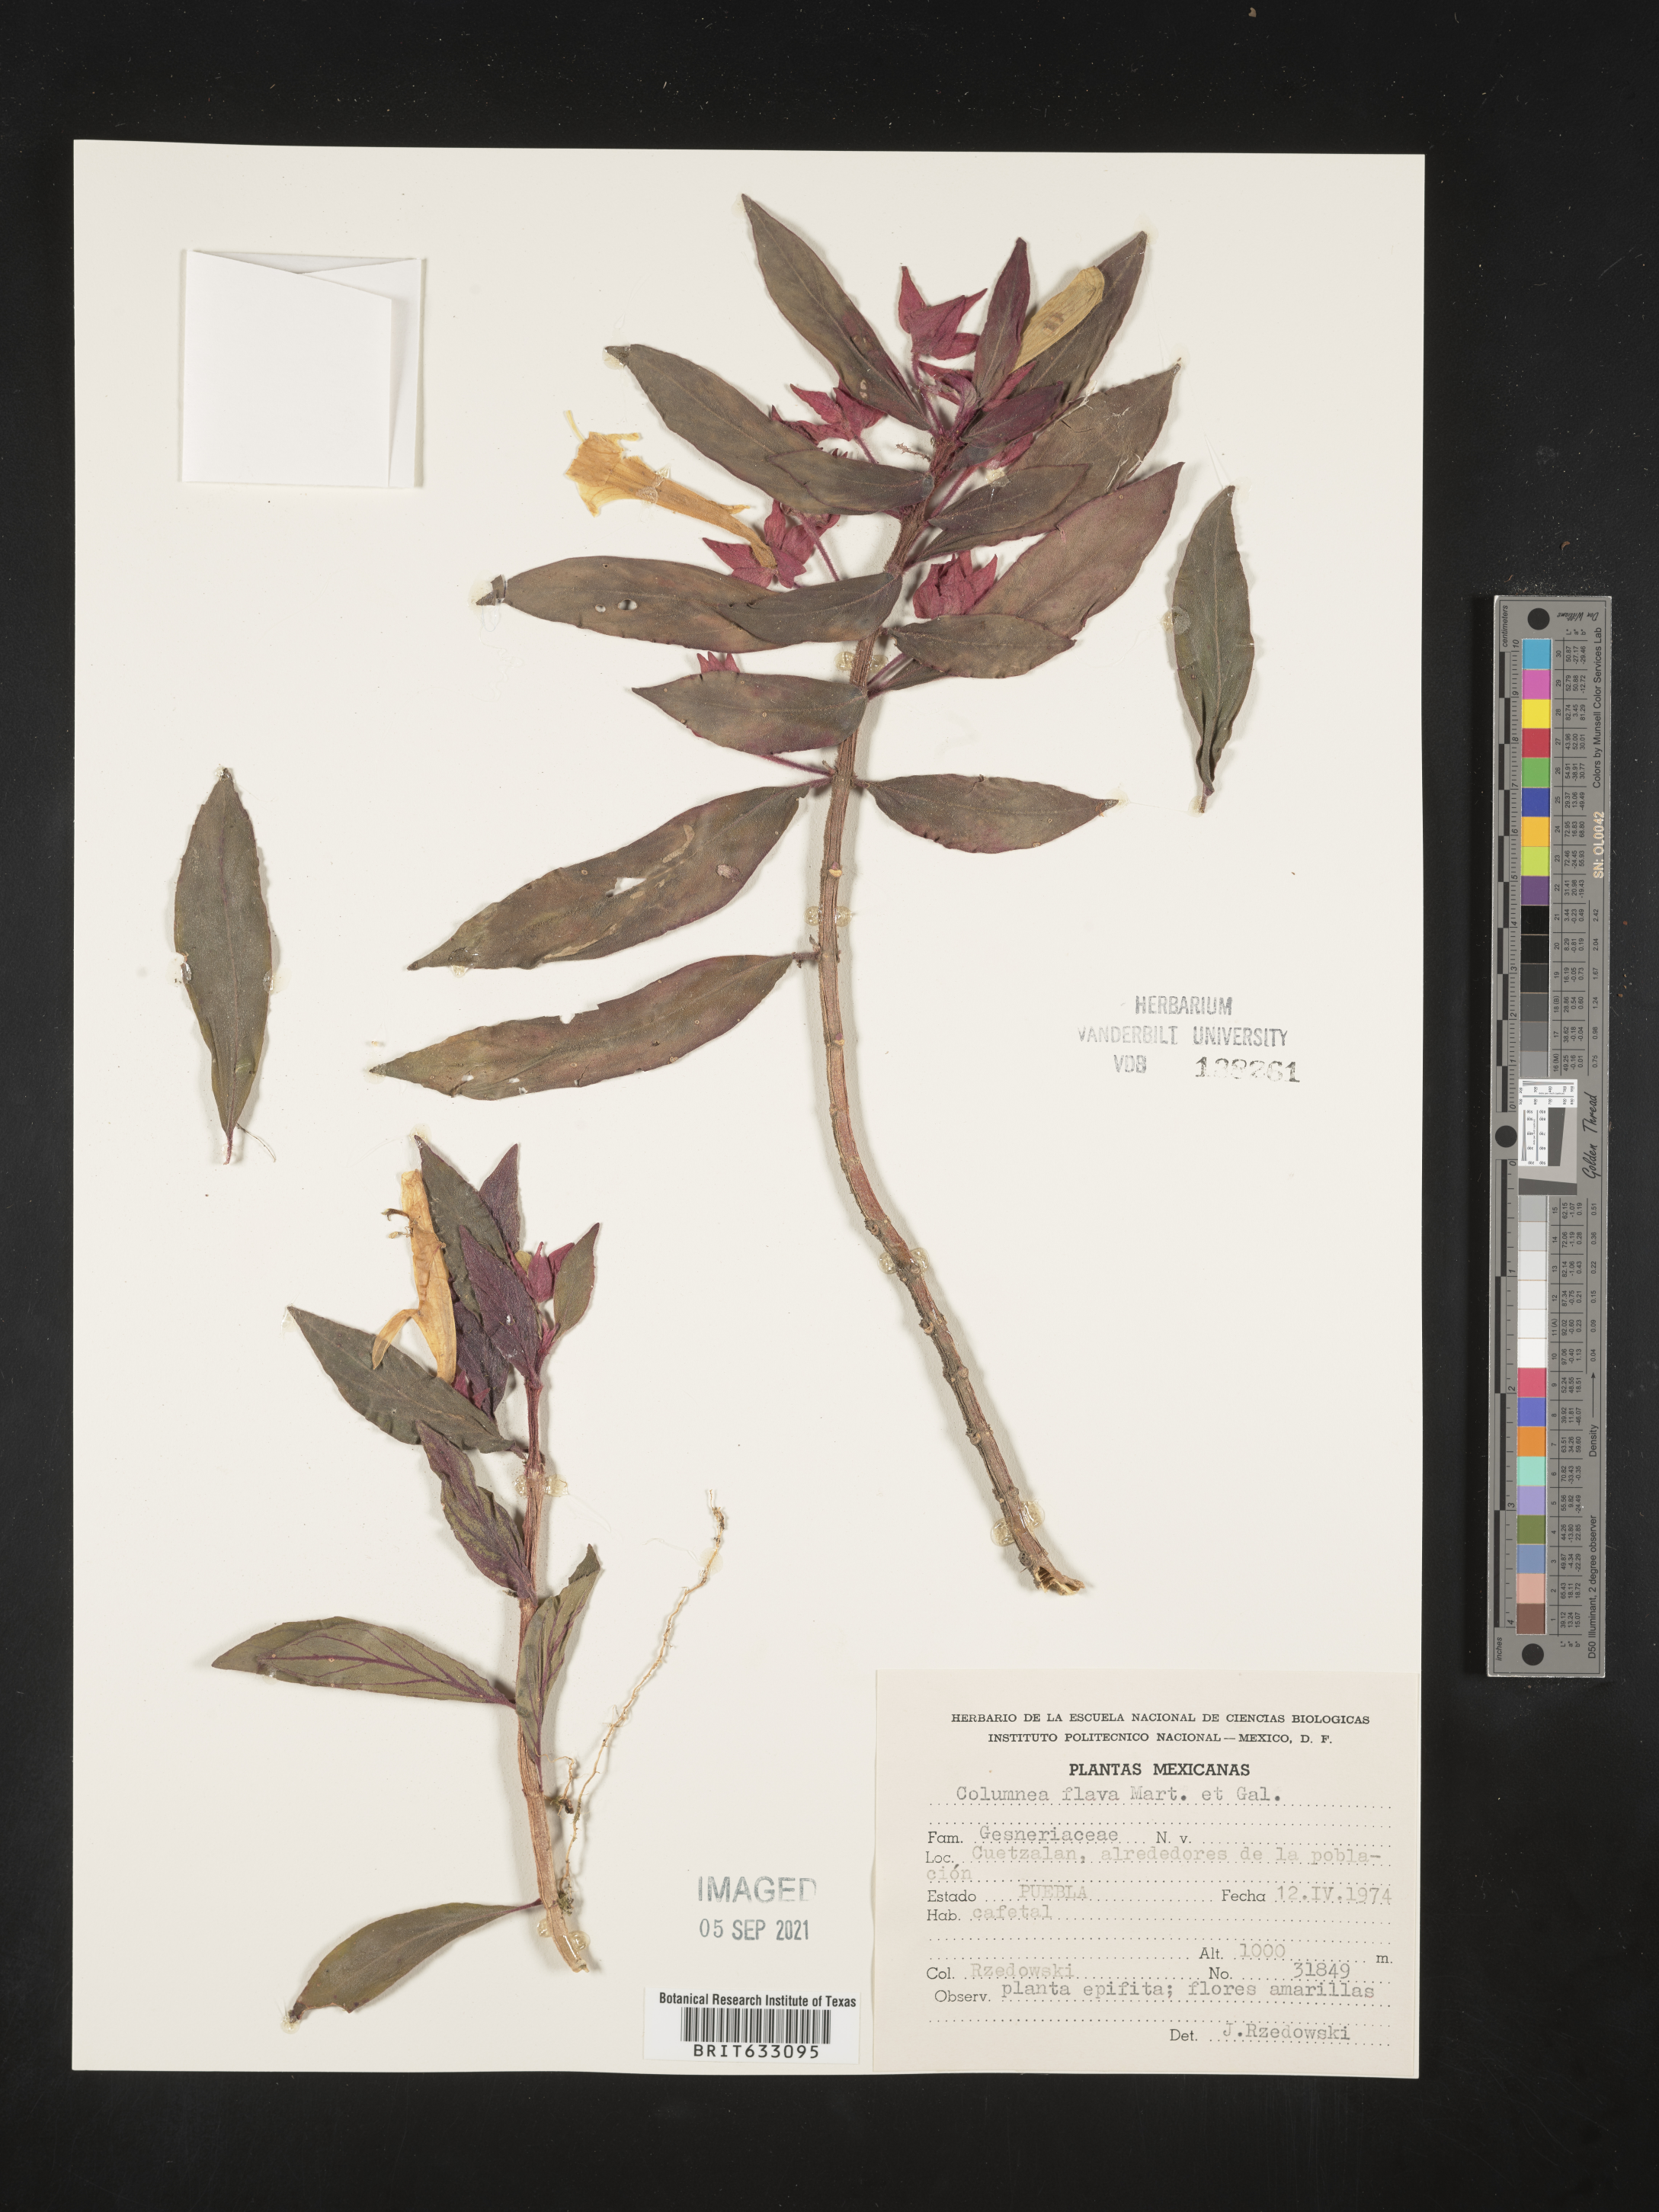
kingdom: Plantae
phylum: Tracheophyta
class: Magnoliopsida
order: Lamiales
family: Gesneriaceae
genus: Columnea
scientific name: Columnea
